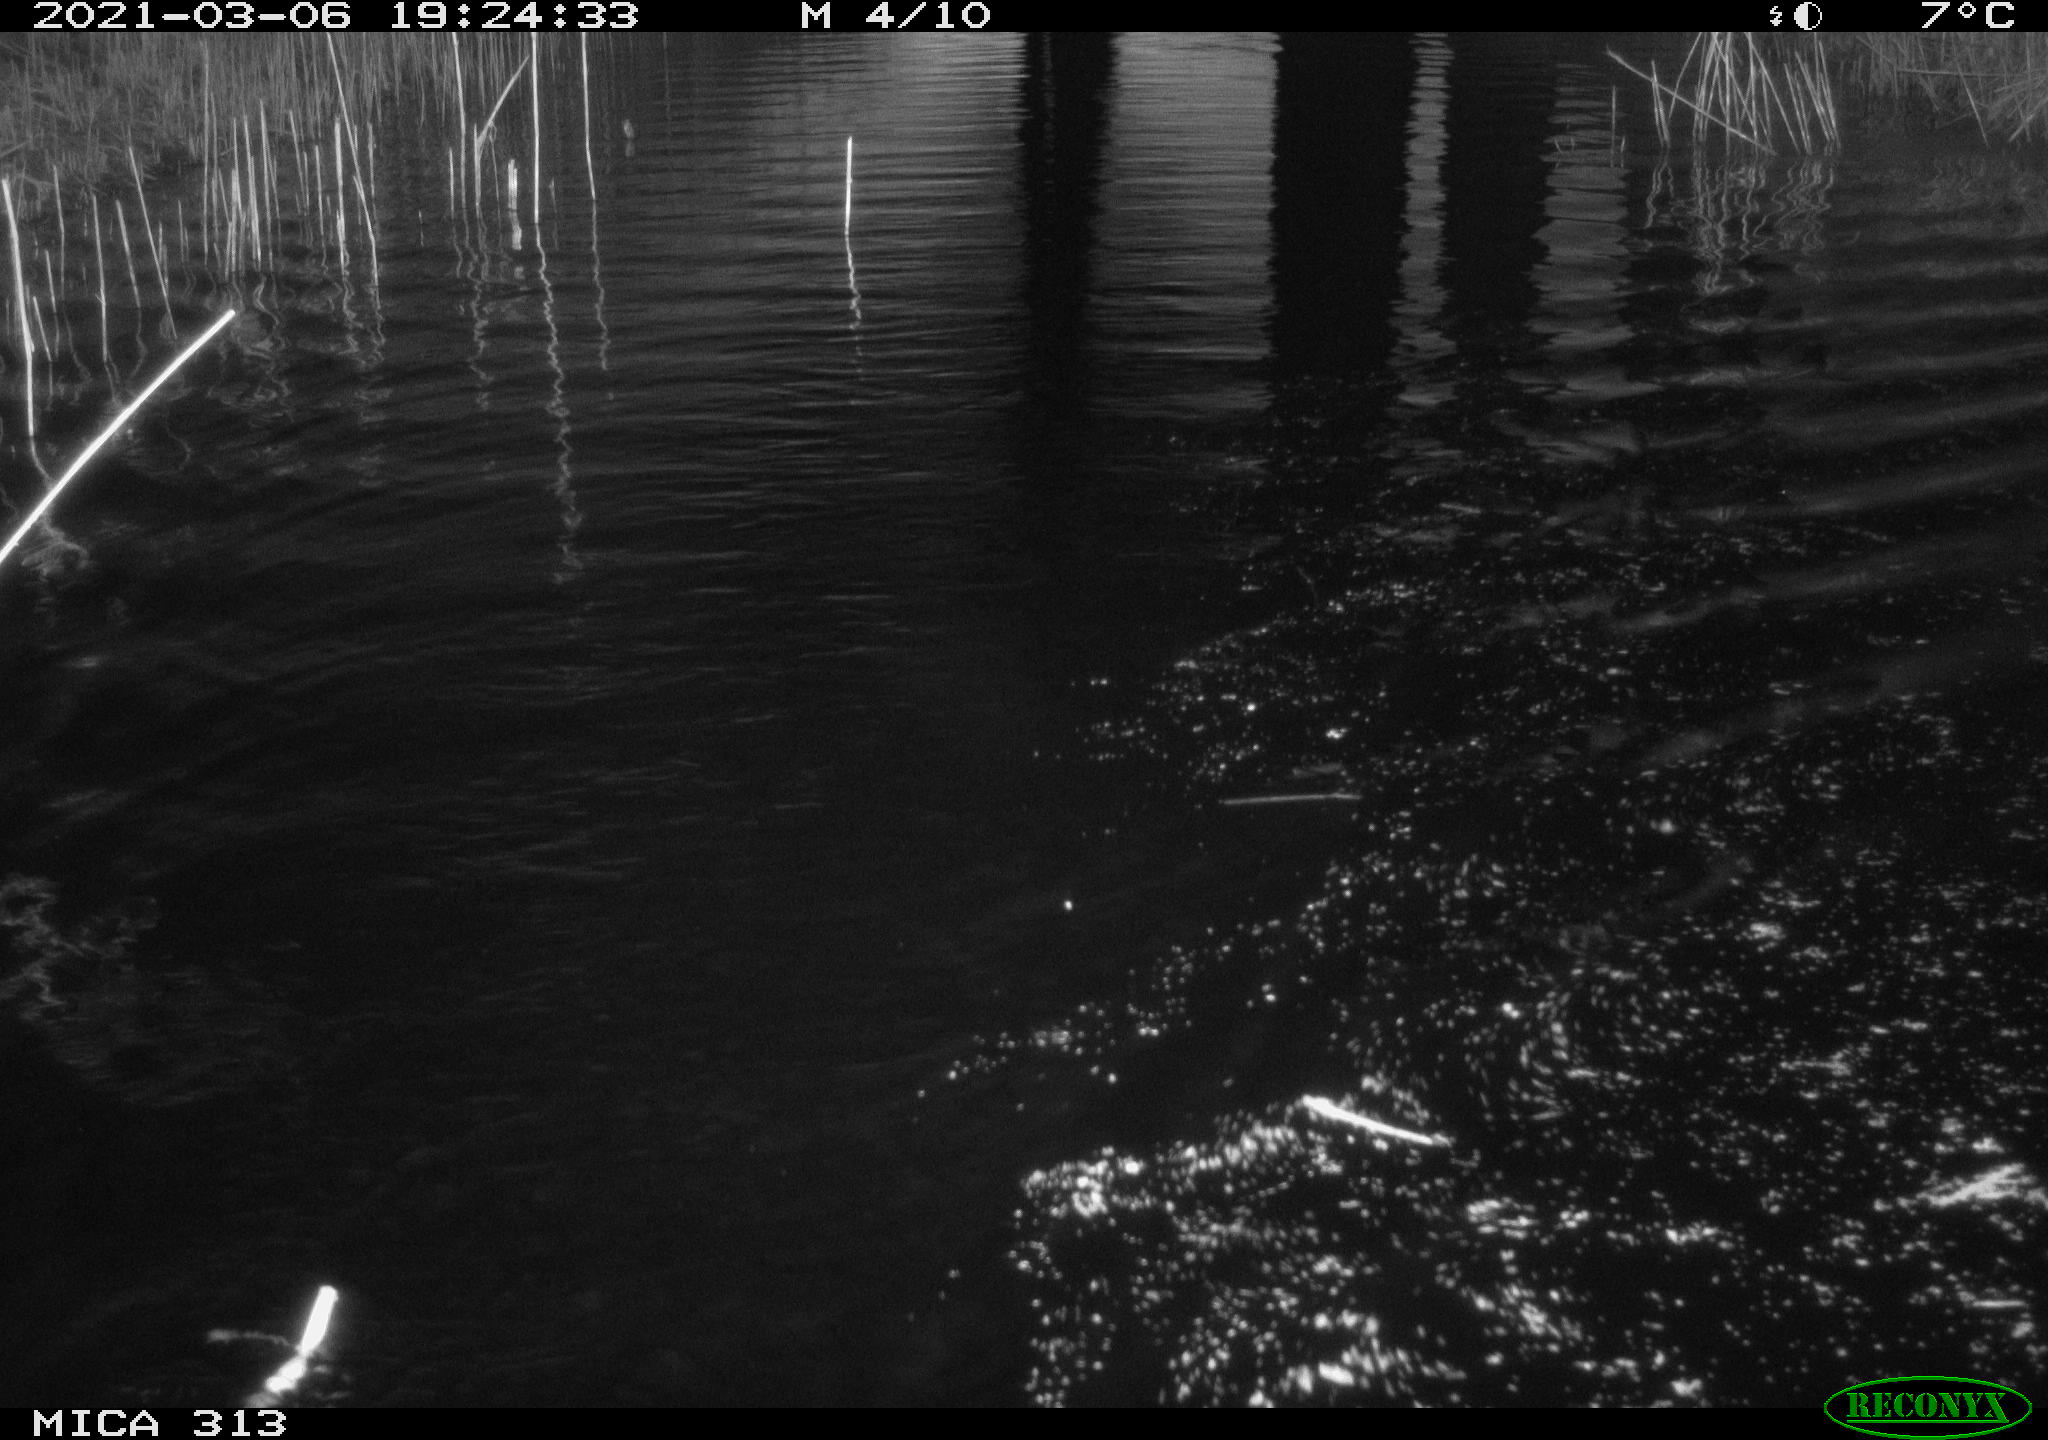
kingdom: Animalia
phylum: Chordata
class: Mammalia
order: Rodentia
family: Cricetidae
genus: Ondatra
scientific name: Ondatra zibethicus
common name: Muskrat
